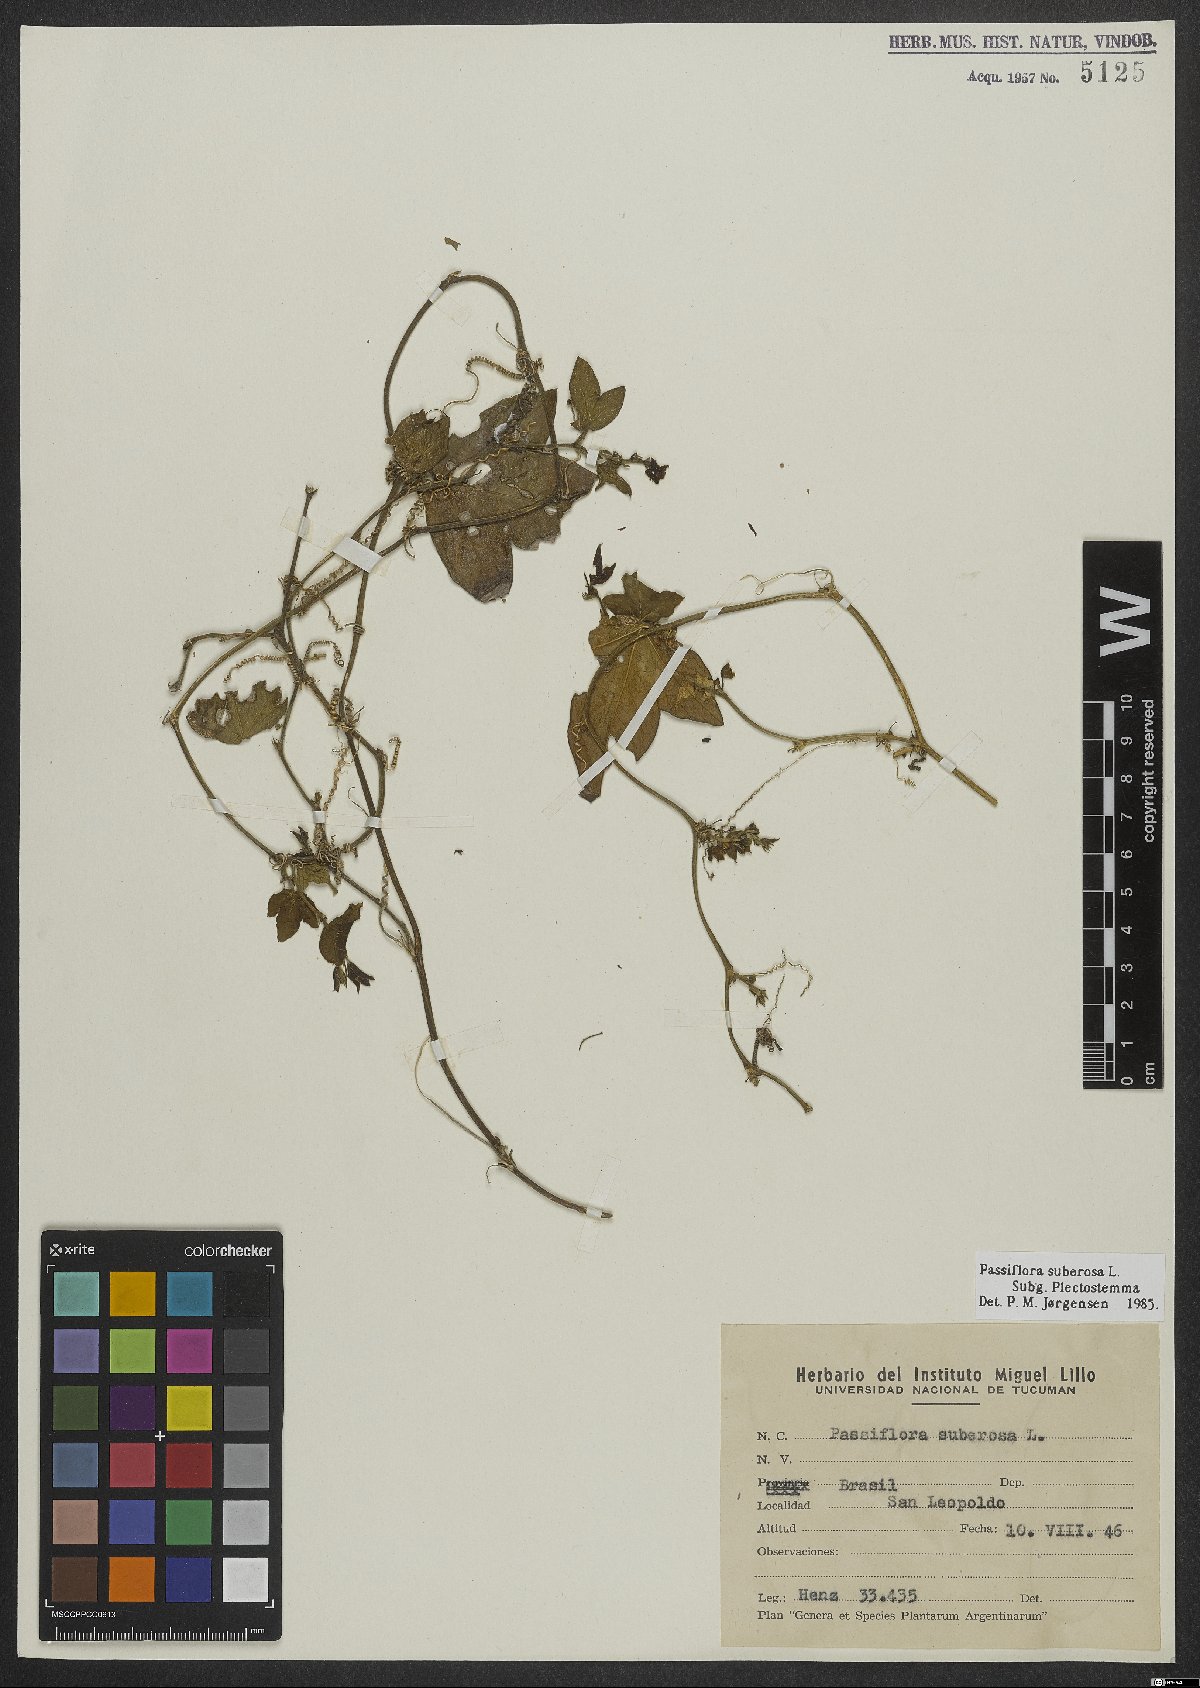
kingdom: Plantae
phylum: Tracheophyta
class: Magnoliopsida
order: Malpighiales
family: Passifloraceae
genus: Passiflora
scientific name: Passiflora suberosa
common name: Wild passionfruit
